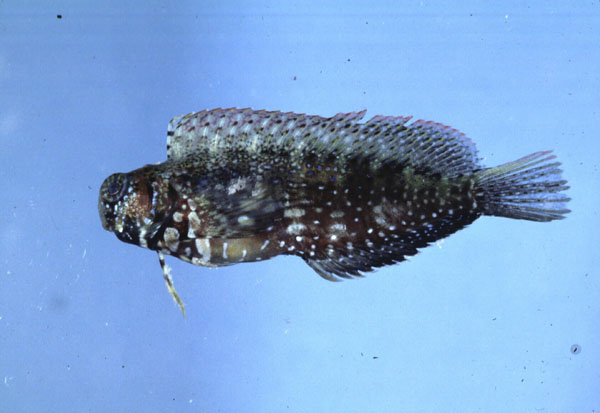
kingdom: Animalia
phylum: Chordata
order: Perciformes
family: Blenniidae
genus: Salarias
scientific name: Salarias fasciatus
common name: Jewelled blenny
